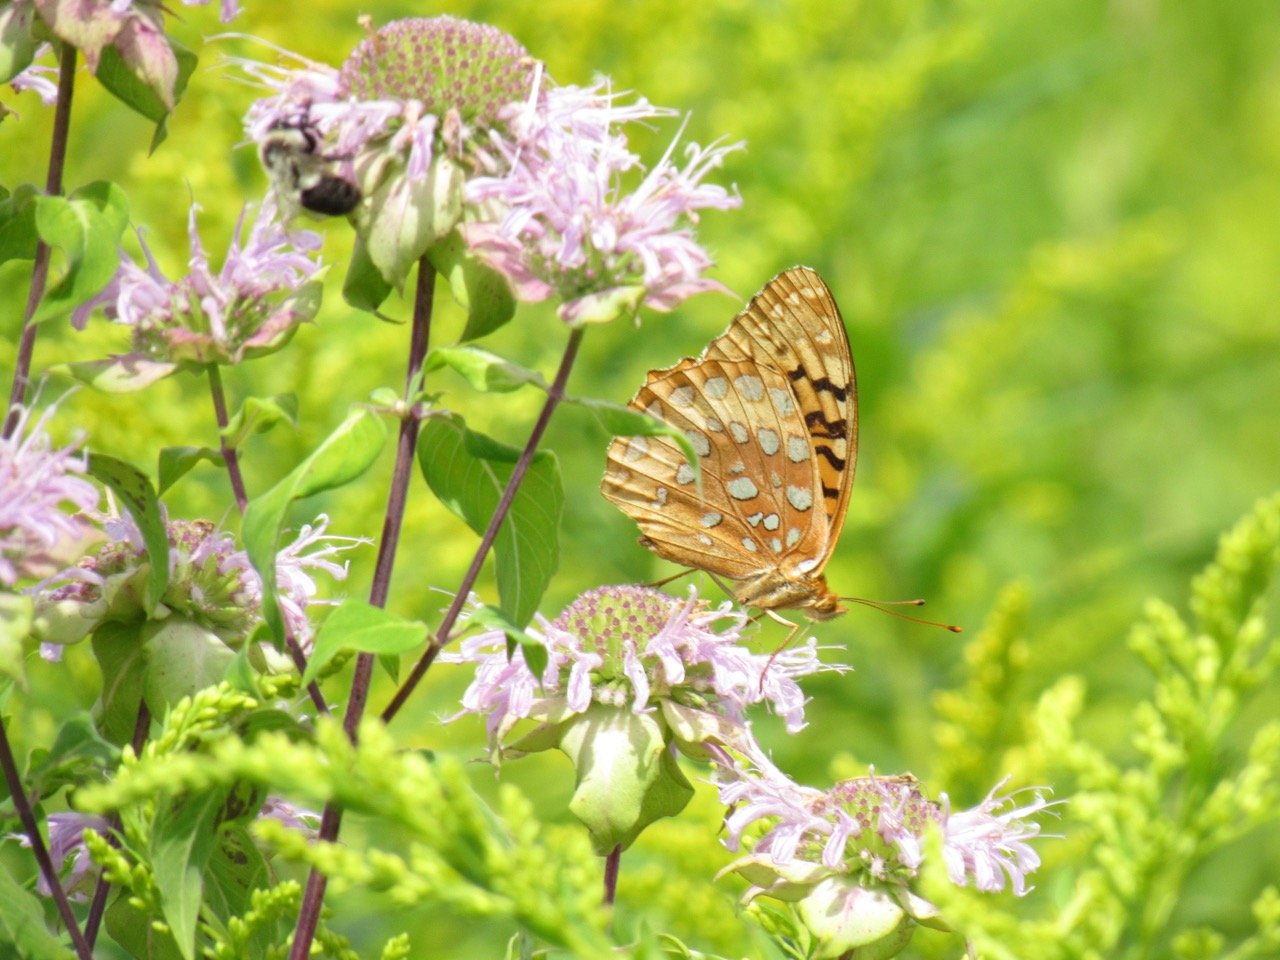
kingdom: Animalia
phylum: Arthropoda
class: Insecta
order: Lepidoptera
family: Nymphalidae
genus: Speyeria
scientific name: Speyeria cybele
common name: Great Spangled Fritillary
